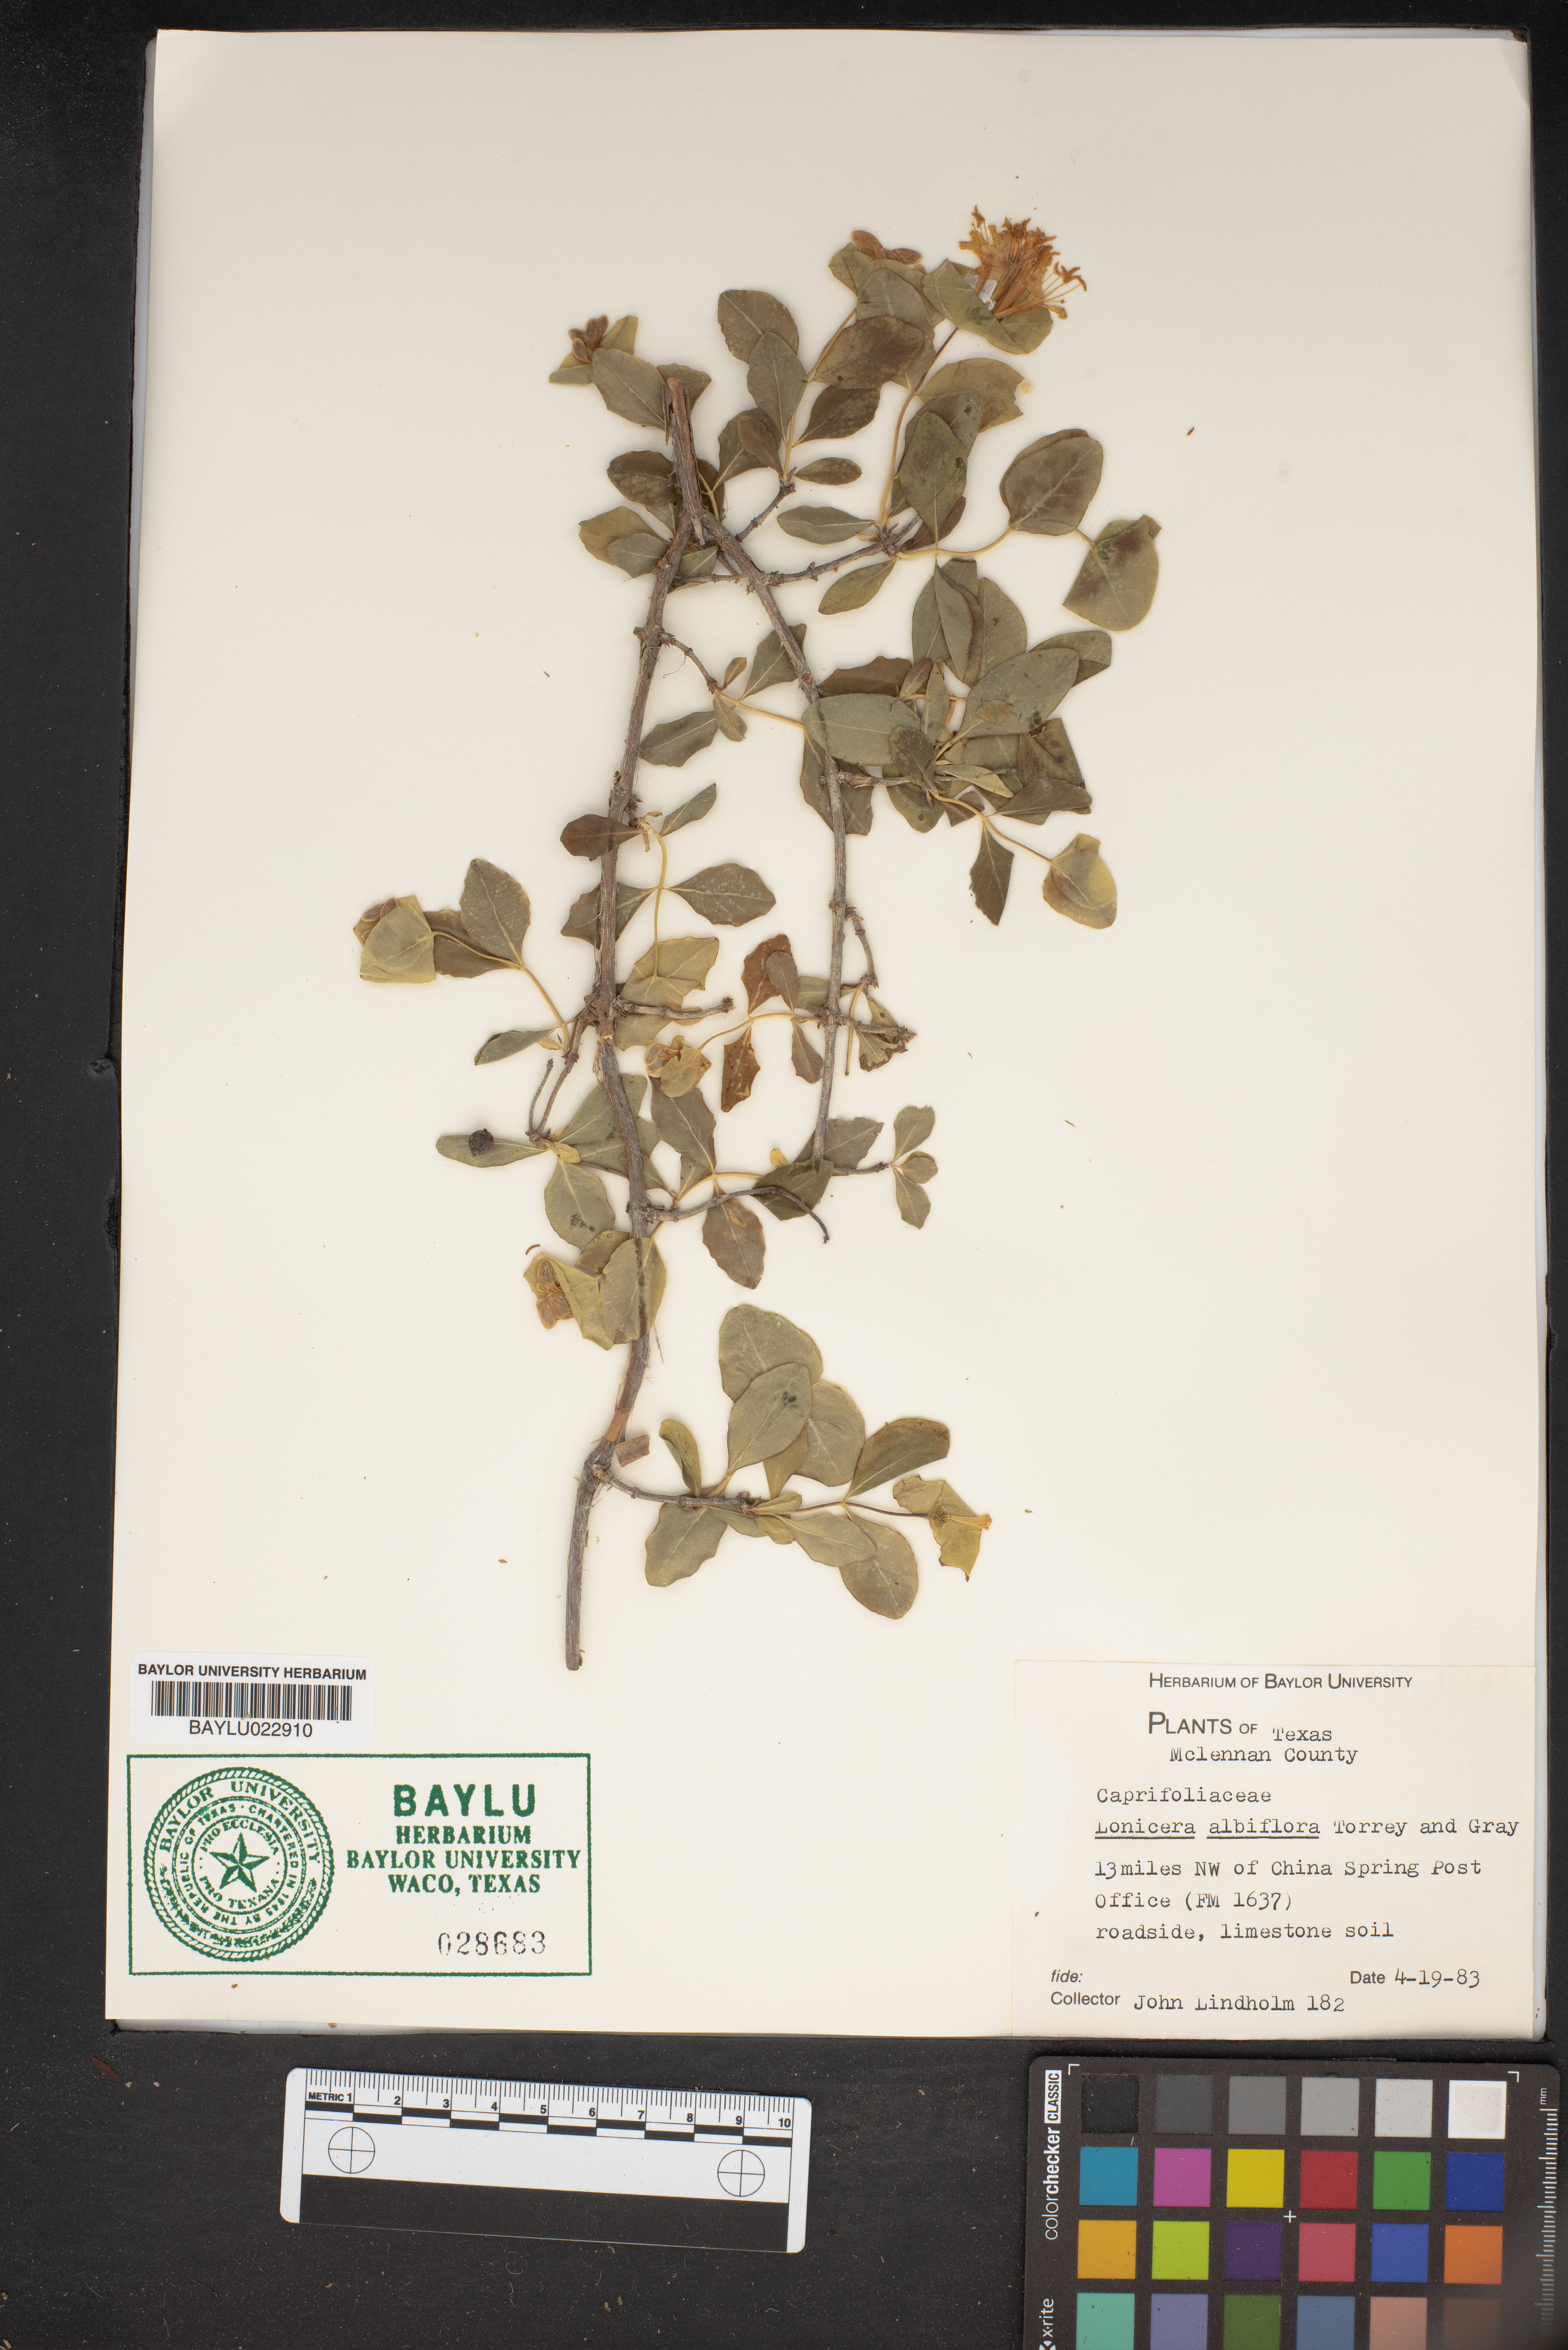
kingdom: Plantae
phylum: Tracheophyta
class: Magnoliopsida
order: Dipsacales
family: Caprifoliaceae
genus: Lonicera
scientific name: Lonicera albiflora
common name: White honeysuckle
